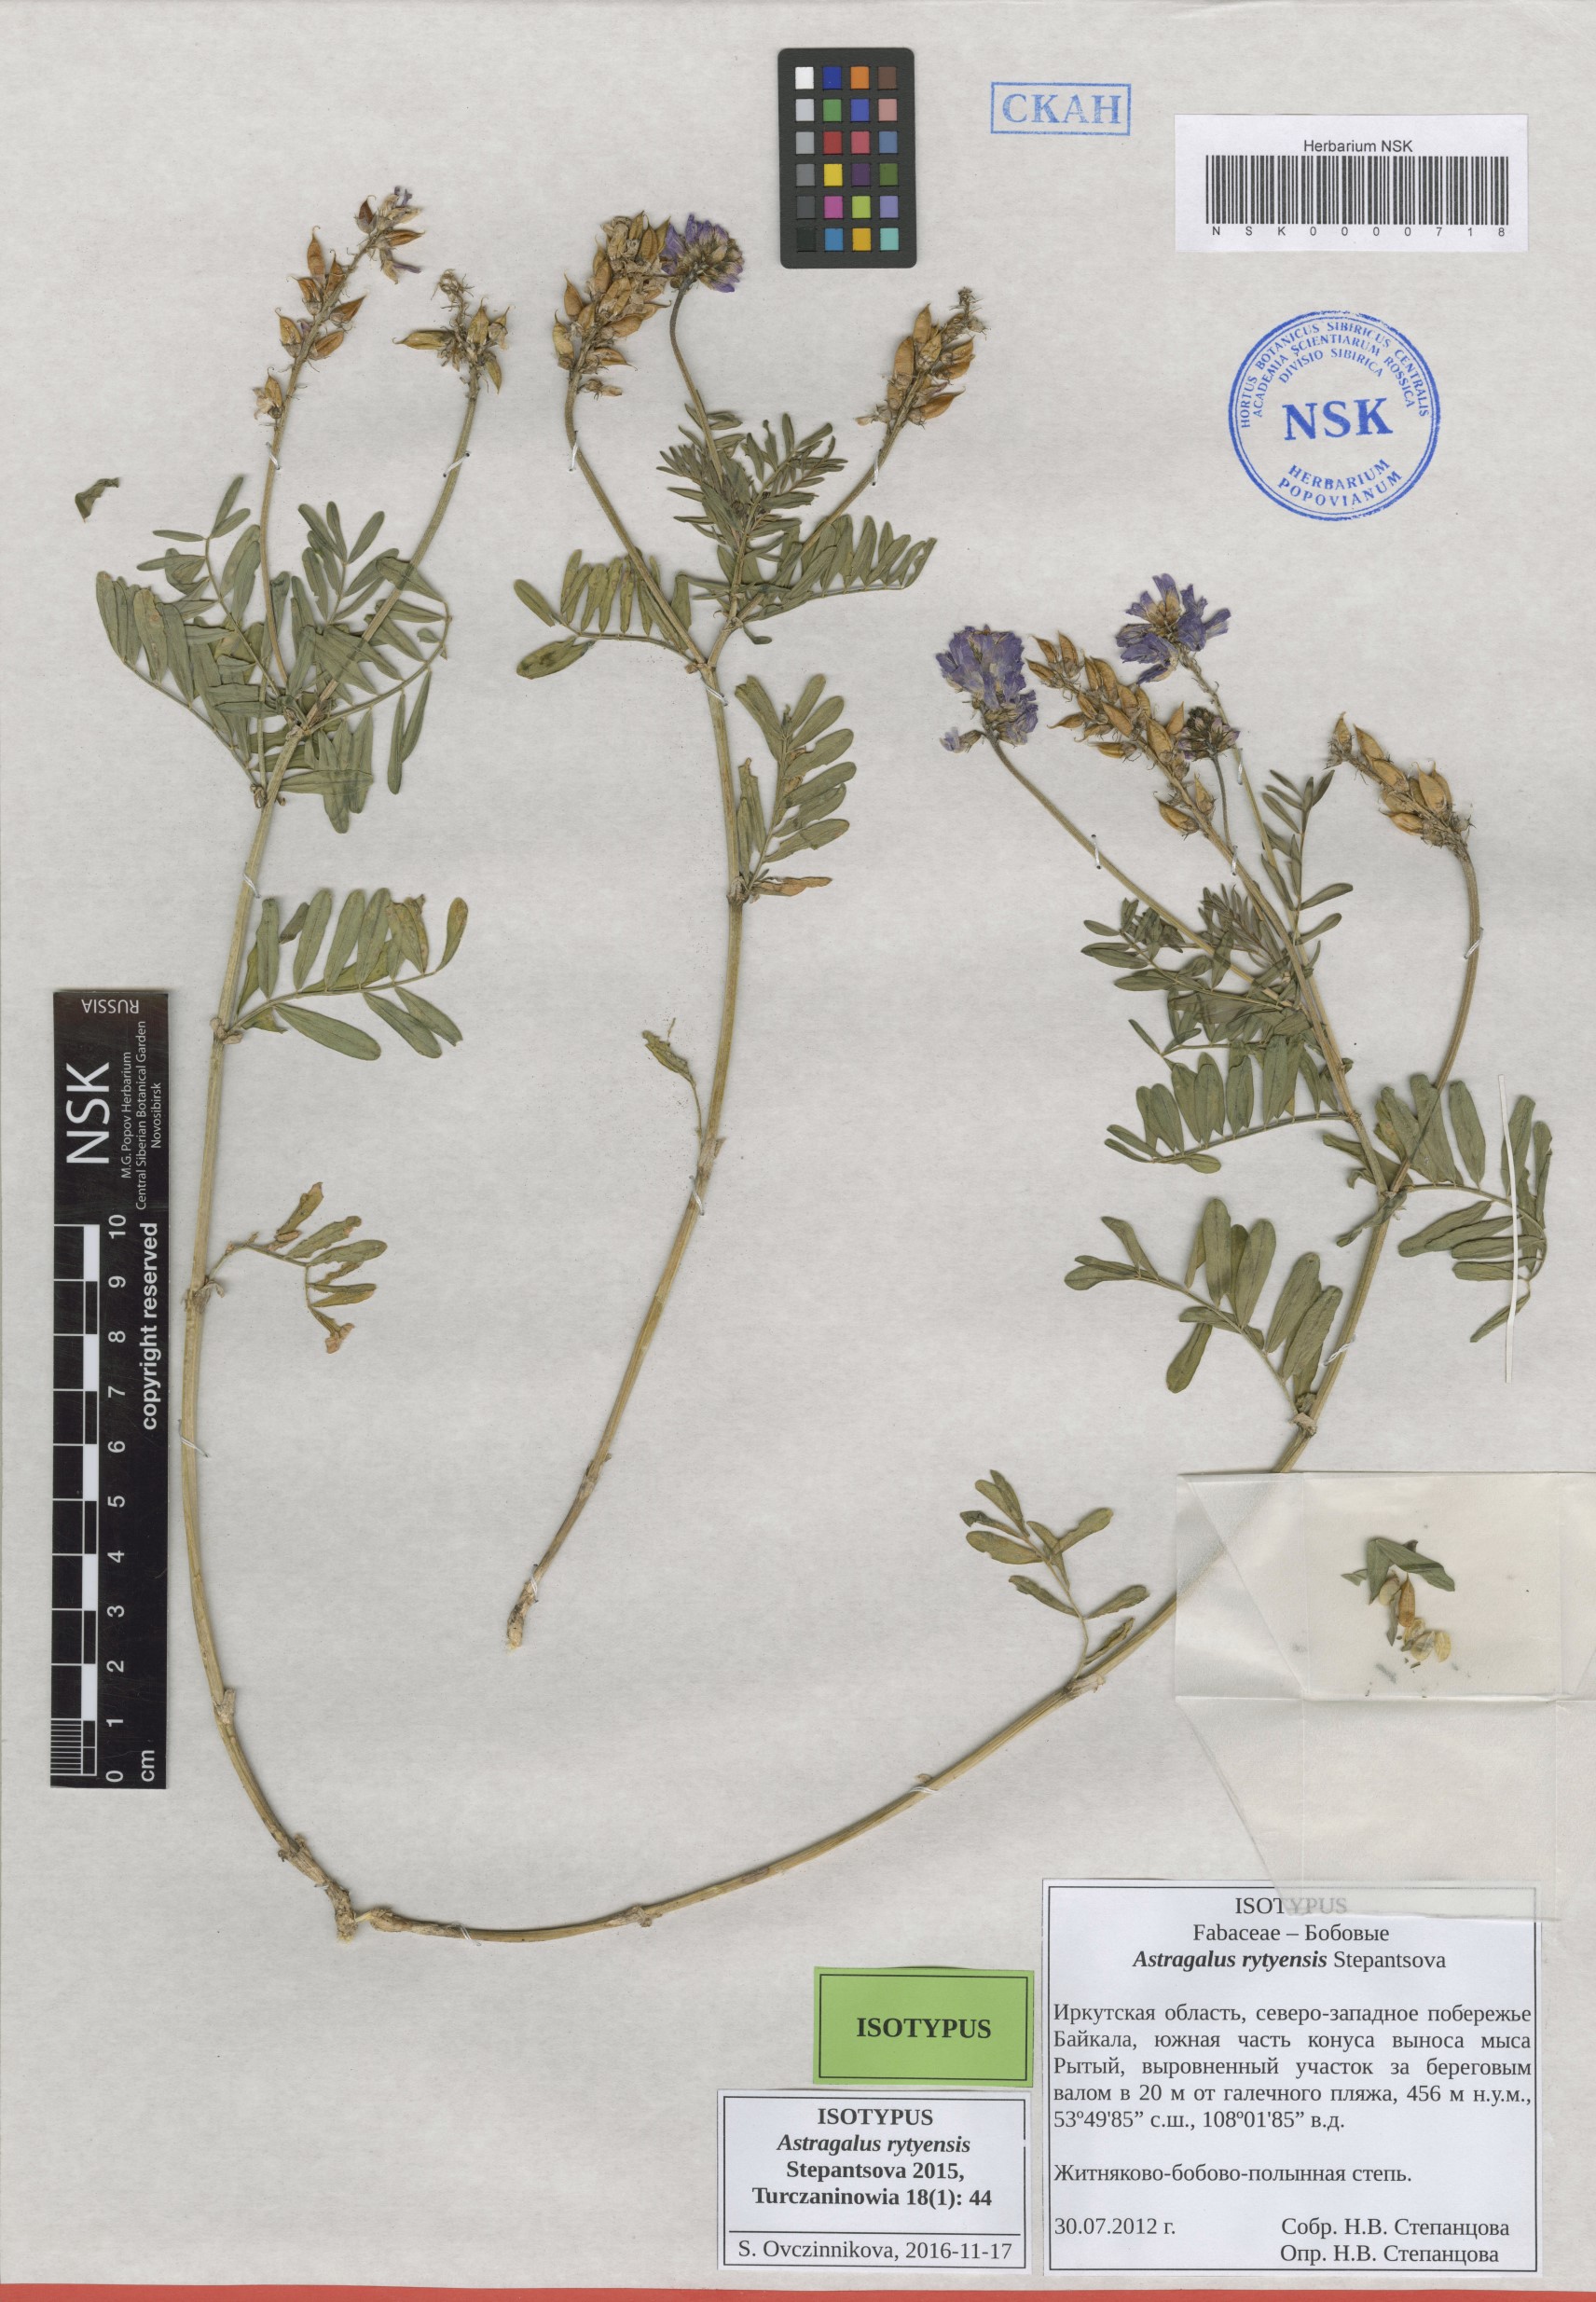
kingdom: Plantae
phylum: Tracheophyta
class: Magnoliopsida
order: Fabales
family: Fabaceae
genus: Astragalus
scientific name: Astragalus rytyensis
